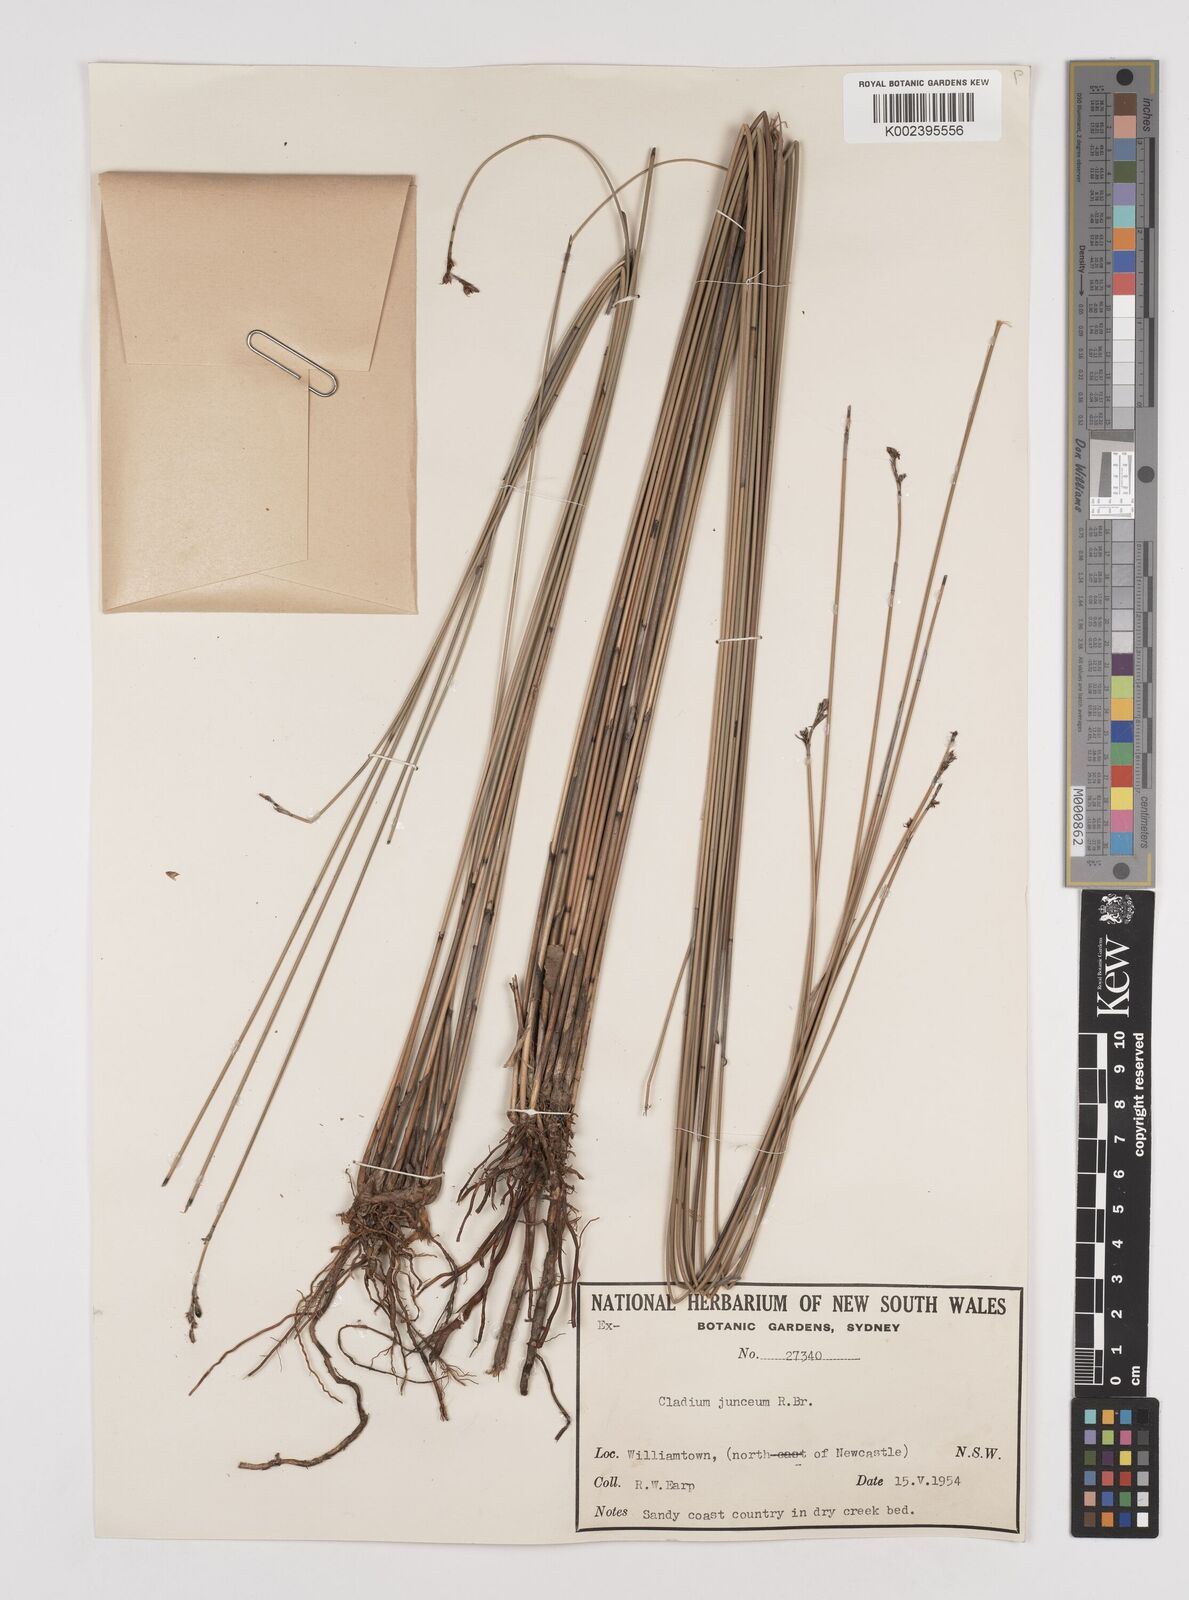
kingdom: Plantae
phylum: Tracheophyta
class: Liliopsida
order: Poales
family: Cyperaceae
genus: Machaerina
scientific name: Machaerina juncea
